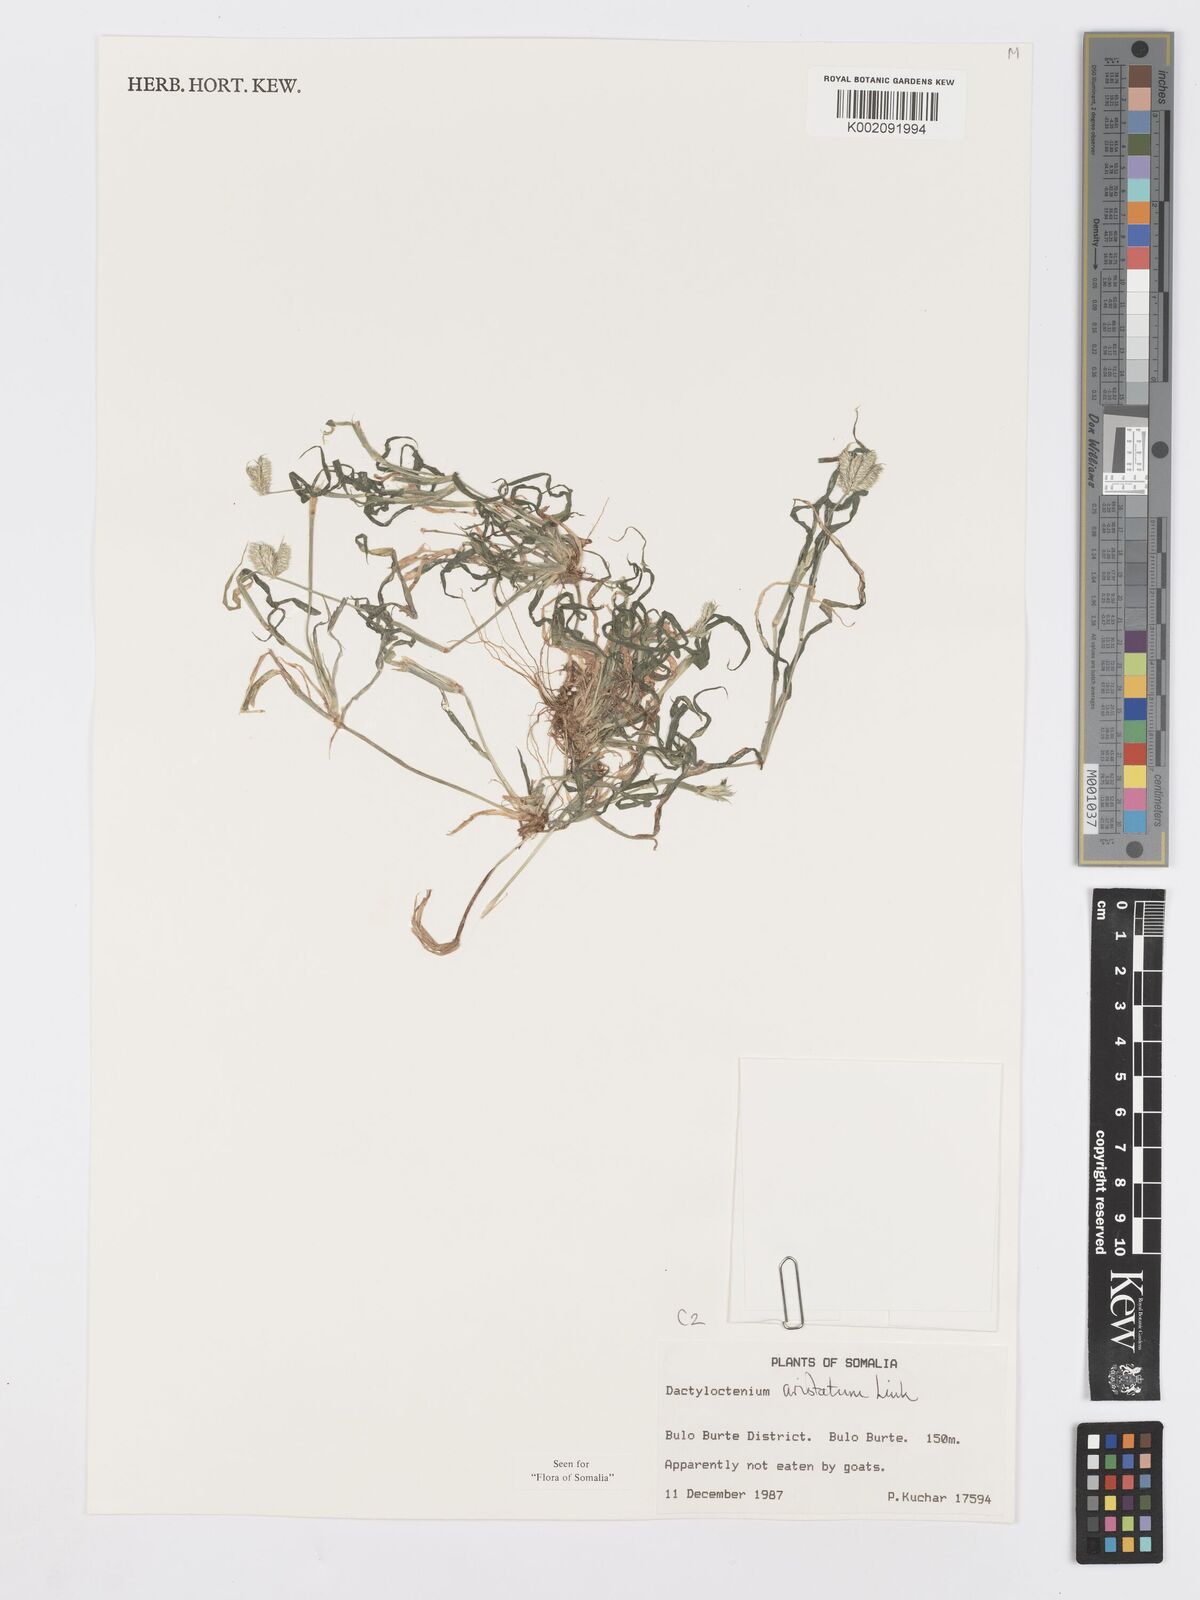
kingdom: Plantae
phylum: Tracheophyta
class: Liliopsida
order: Poales
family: Poaceae
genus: Dactyloctenium
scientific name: Dactyloctenium aristatum
